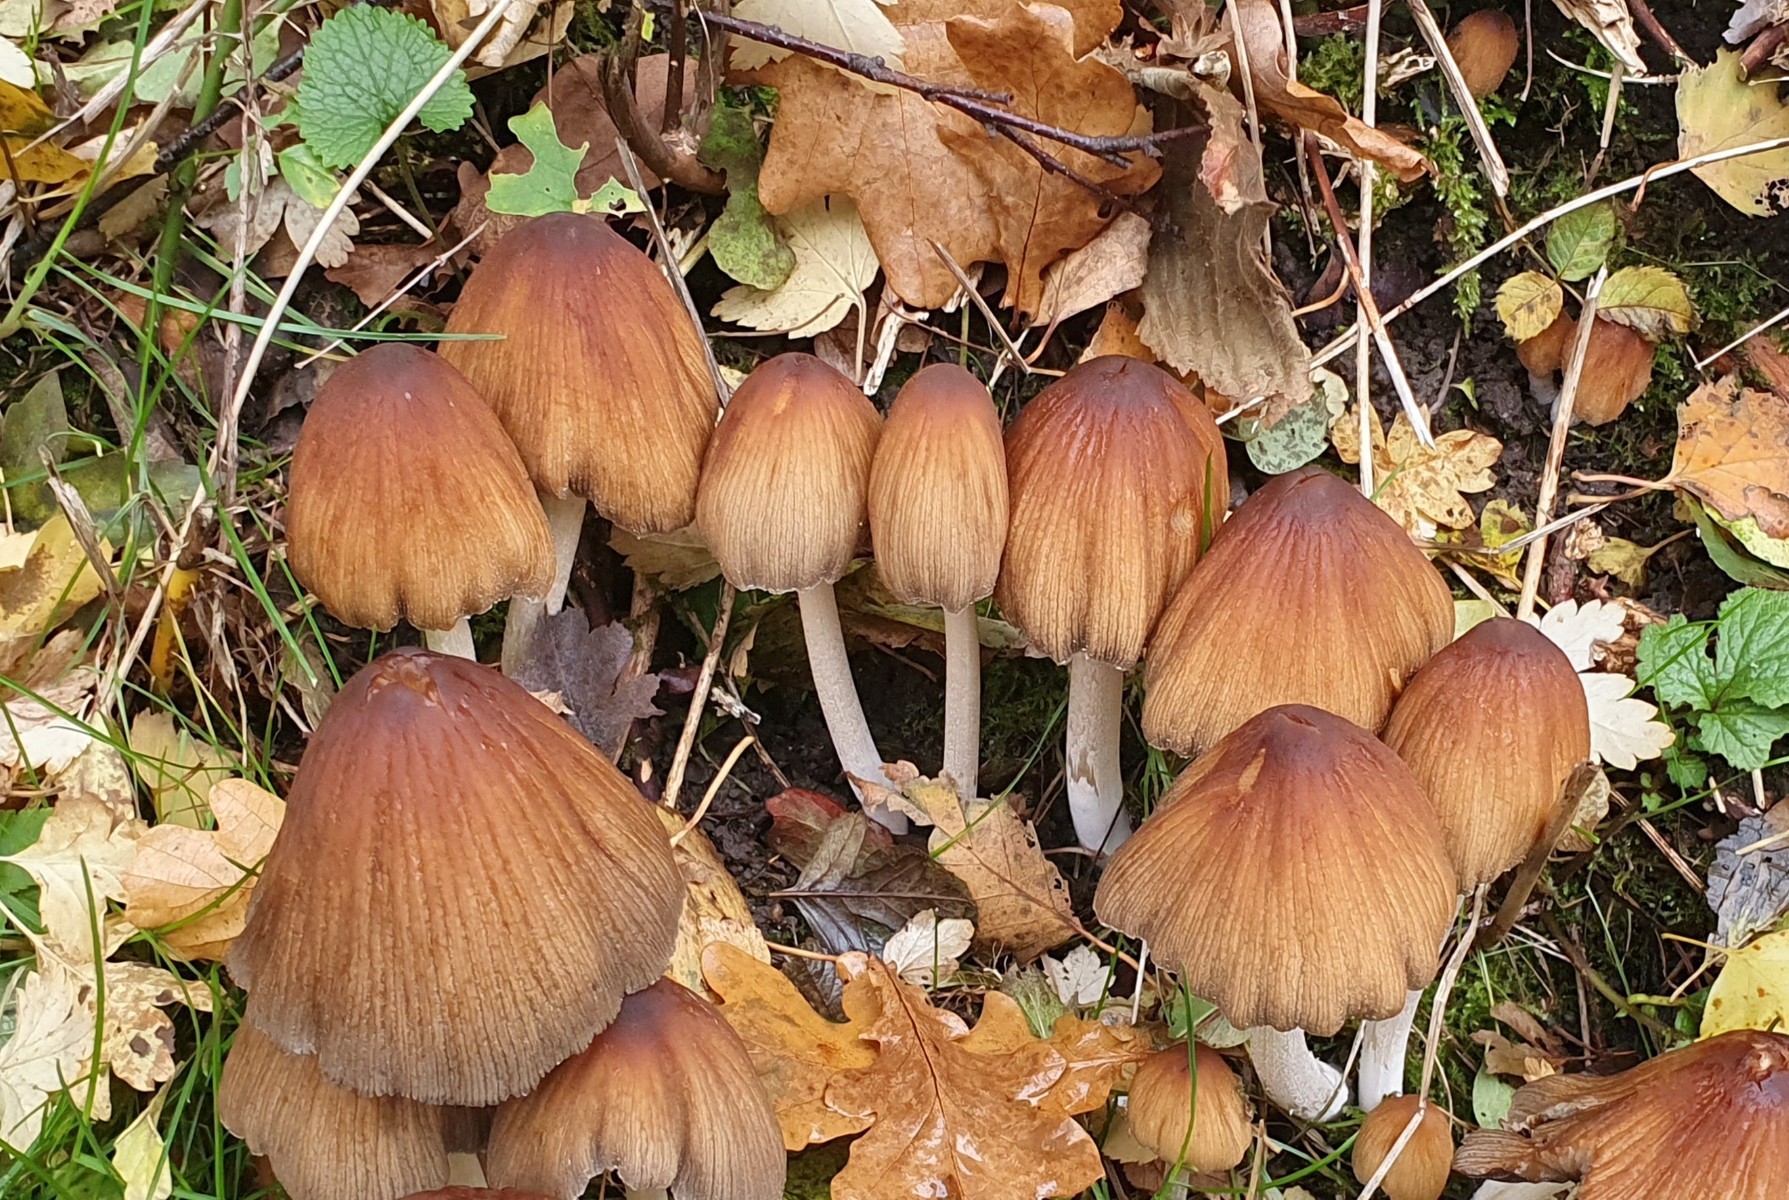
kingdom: Fungi
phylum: Basidiomycota
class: Agaricomycetes
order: Agaricales
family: Psathyrellaceae
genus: Coprinellus
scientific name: Coprinellus micaceus
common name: glimmer-blækhat
